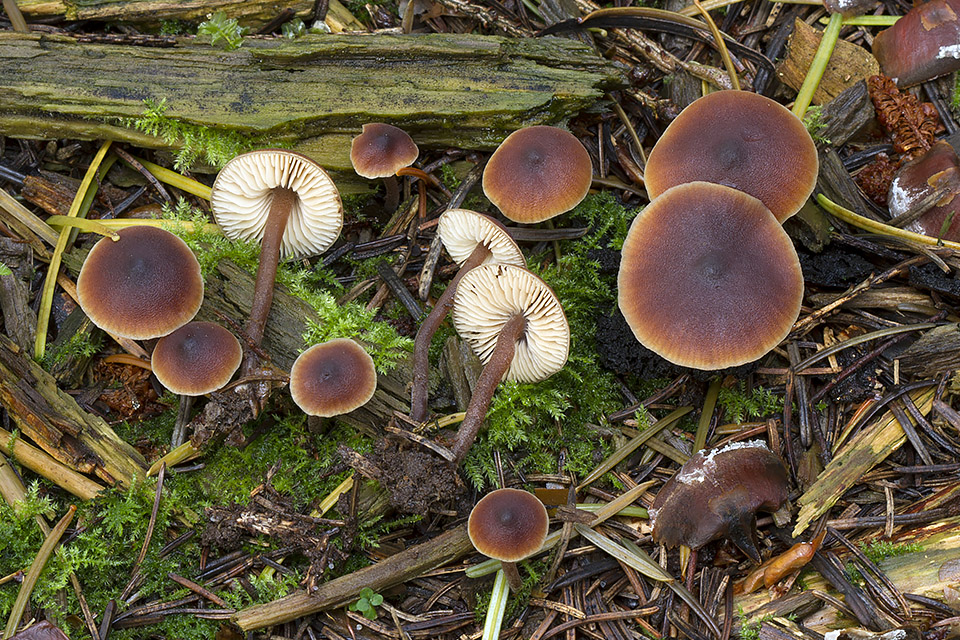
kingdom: Fungi
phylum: Basidiomycota
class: Agaricomycetes
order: Agaricales
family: Macrocystidiaceae
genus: Macrocystidia
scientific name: Macrocystidia cucumis
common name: agurkehat
